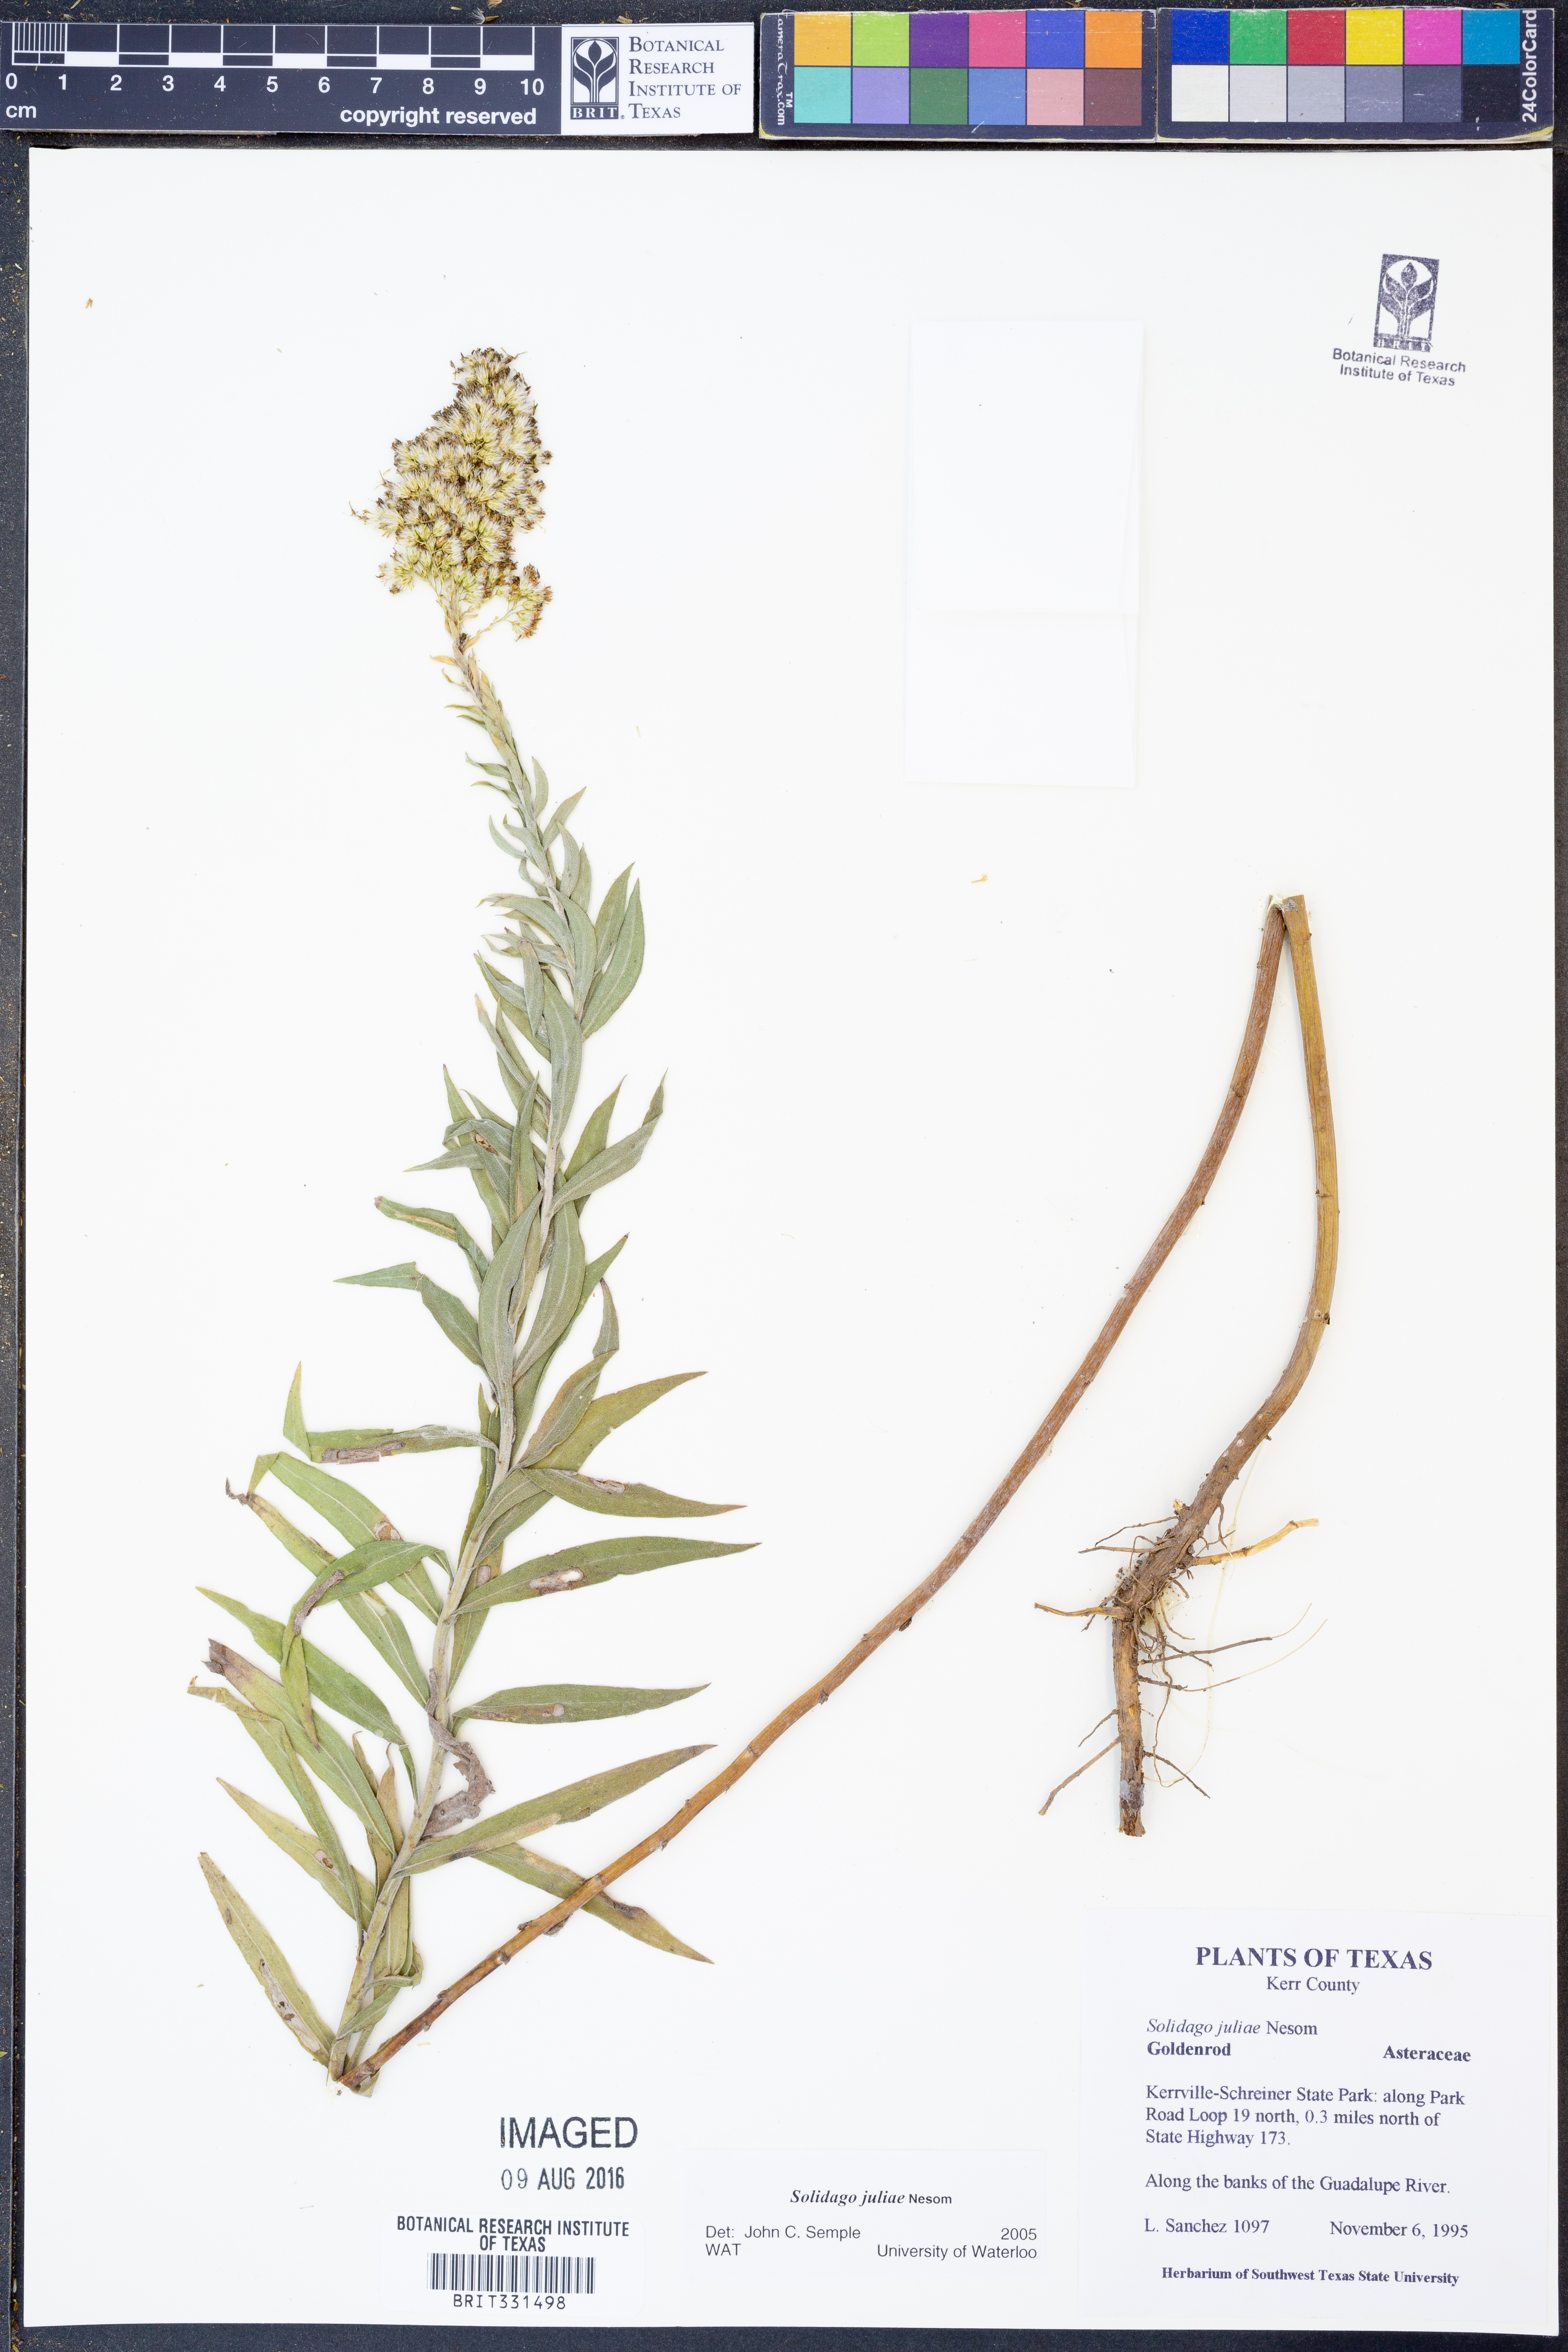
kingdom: Plantae
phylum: Tracheophyta
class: Magnoliopsida
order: Asterales
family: Asteraceae
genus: Solidago
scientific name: Solidago juliae
